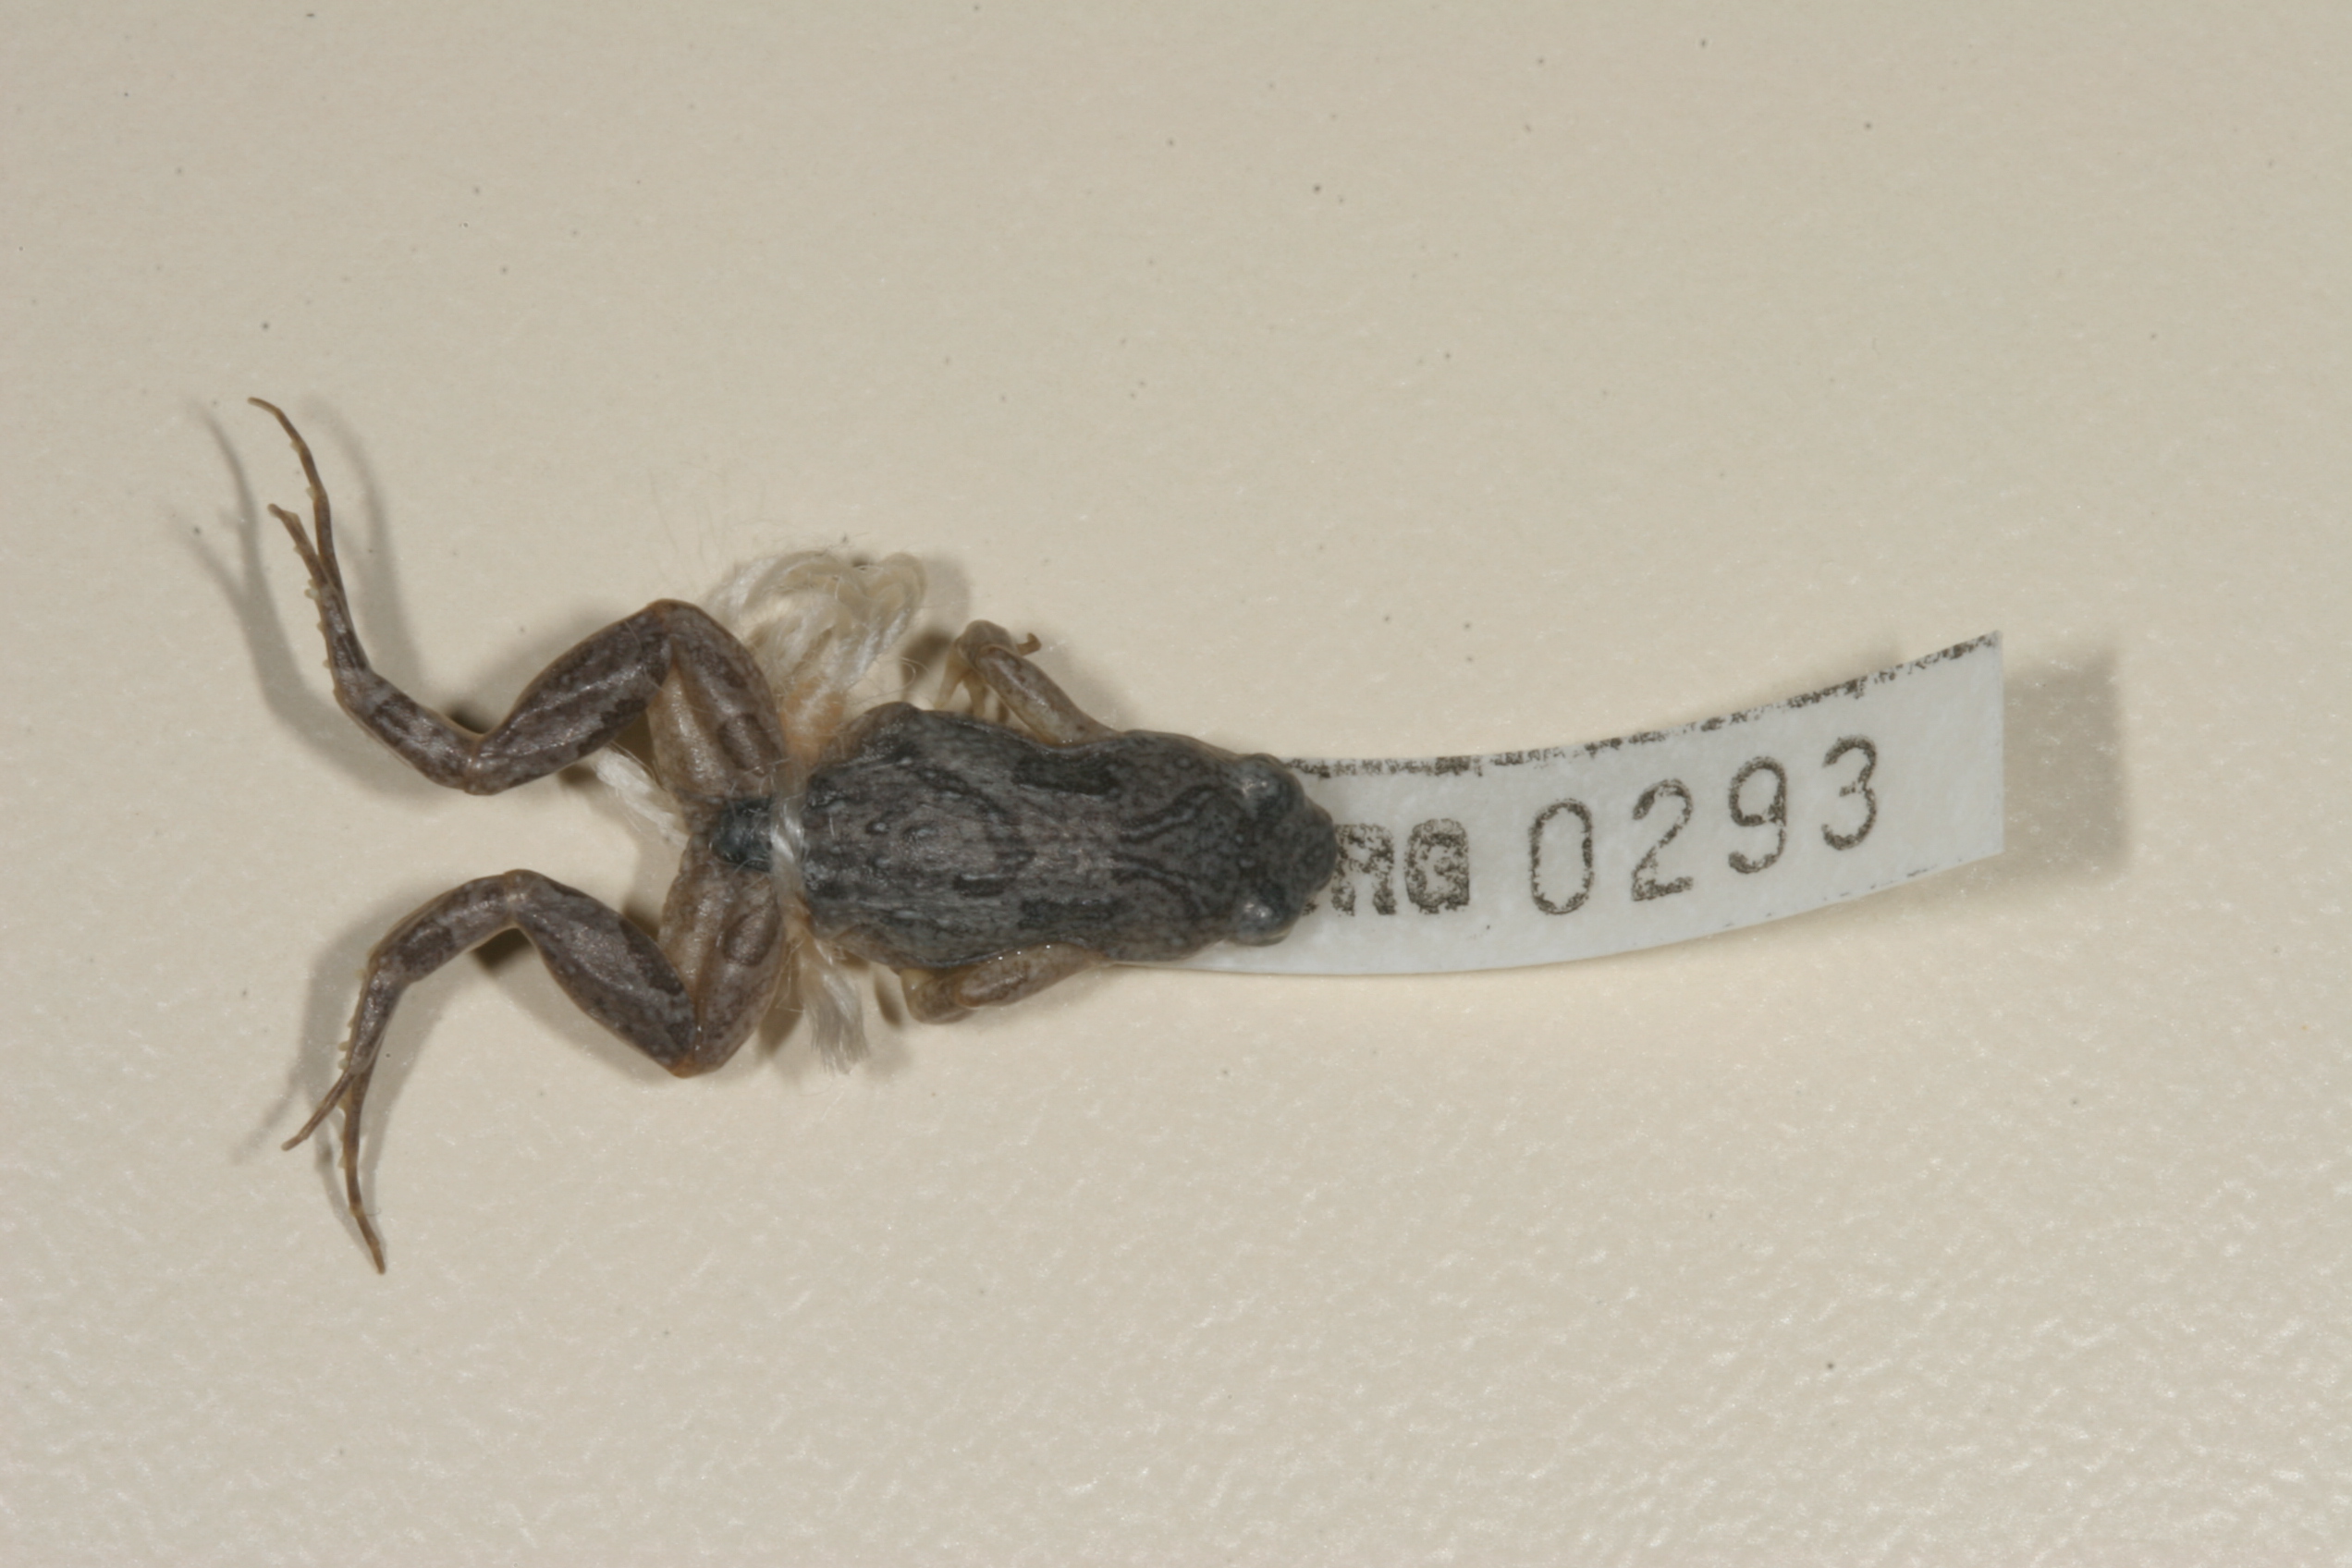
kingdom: Animalia
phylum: Chordata
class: Amphibia
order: Anura
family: Pyxicephalidae
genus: Cacosternum
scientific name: Cacosternum boettgeri
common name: Boettger's frog
